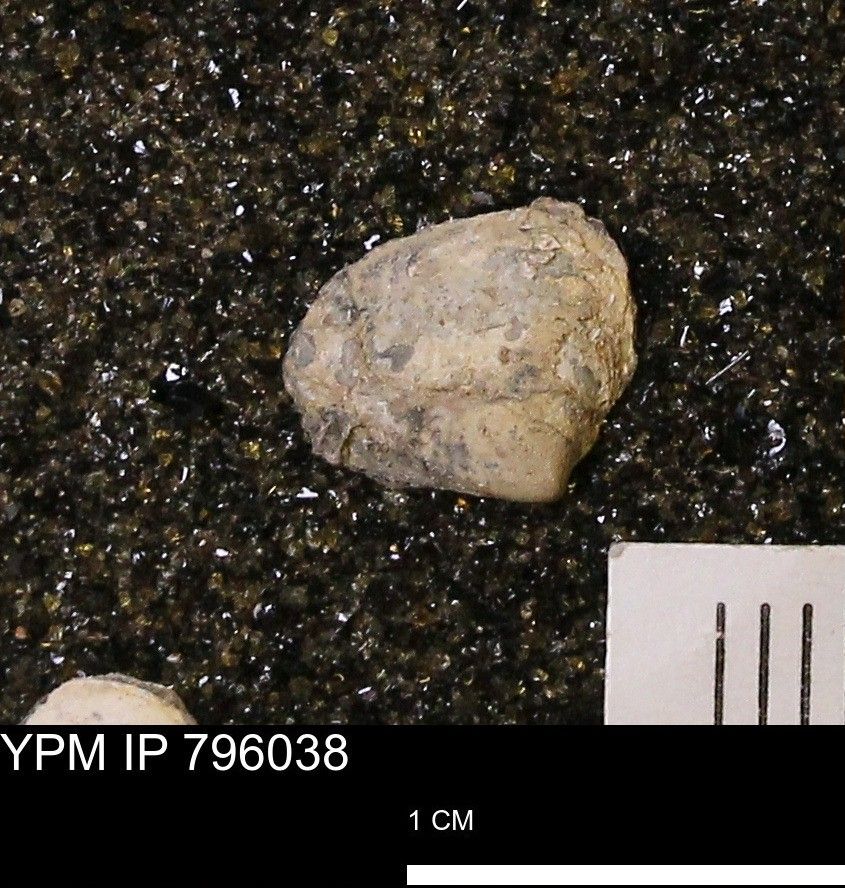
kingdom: Animalia
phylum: Mollusca
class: Bivalvia
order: Venerida
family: Mactridae
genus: Spisula
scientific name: Spisula elliptica
